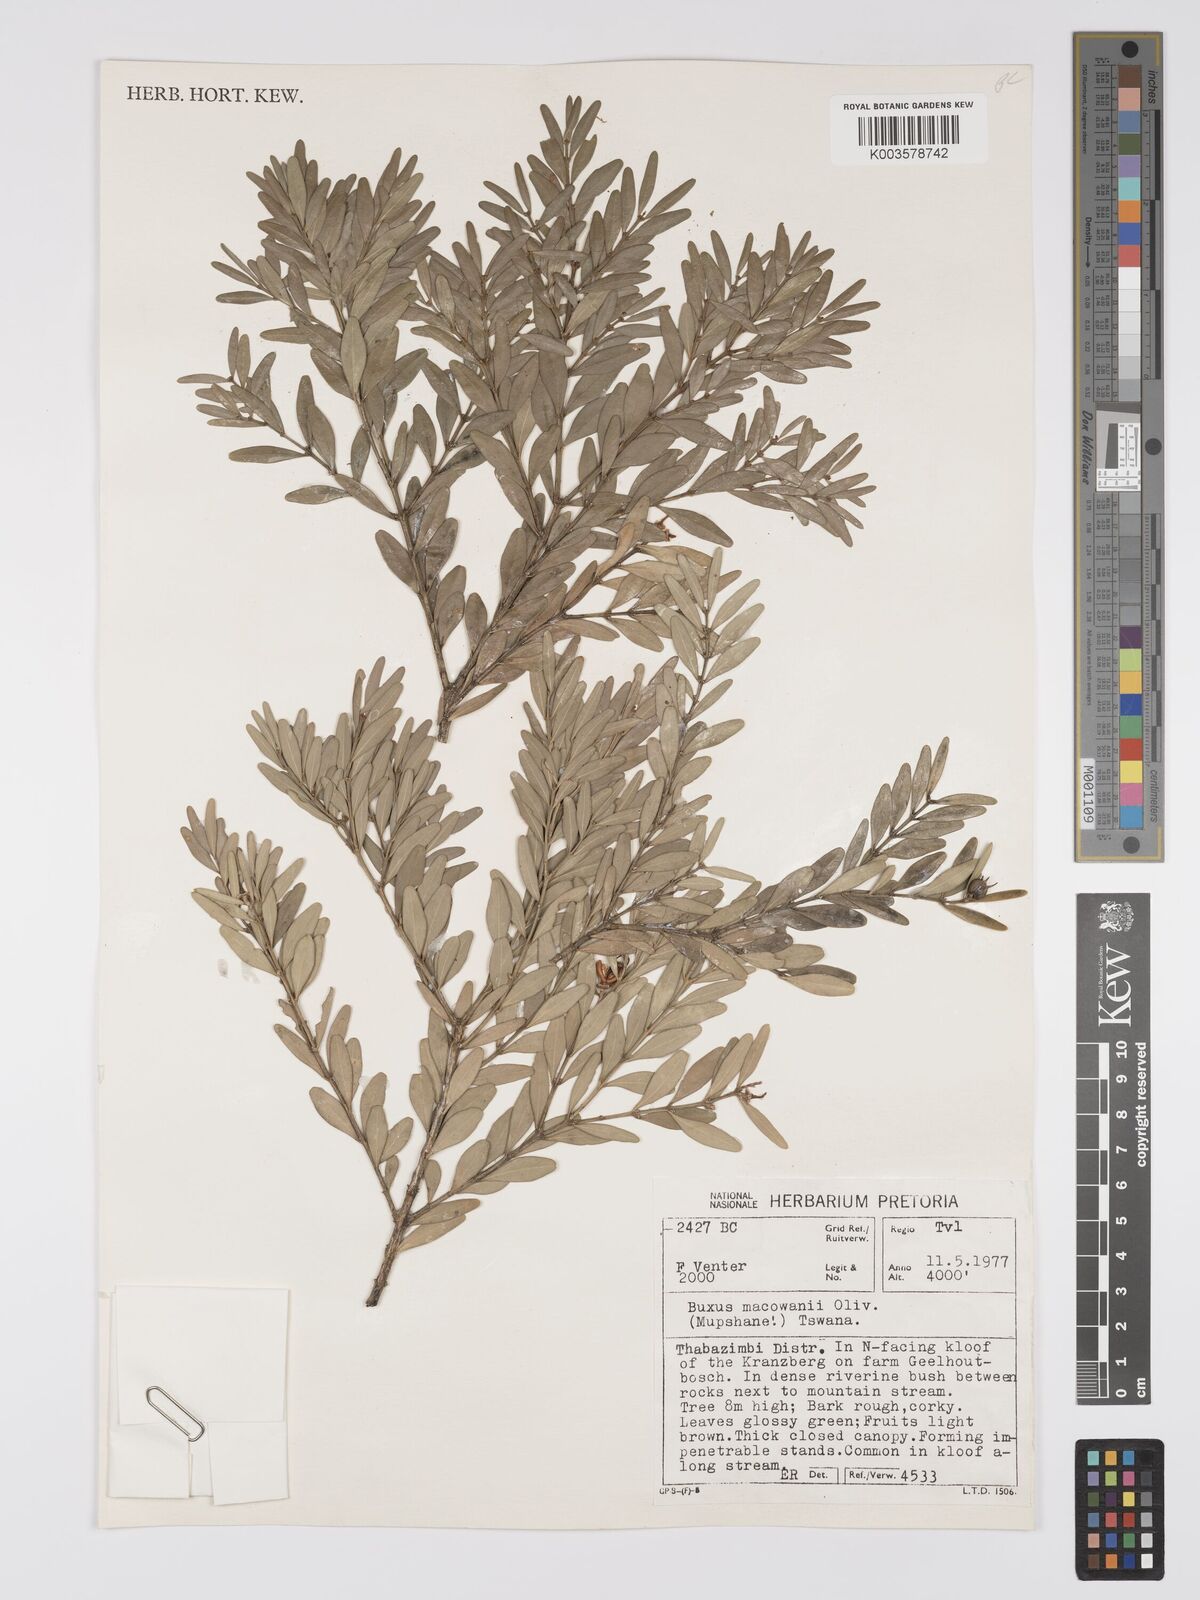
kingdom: Plantae
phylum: Tracheophyta
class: Magnoliopsida
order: Buxales
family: Buxaceae
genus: Buxus
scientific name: Buxus macowanii
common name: Cape box
